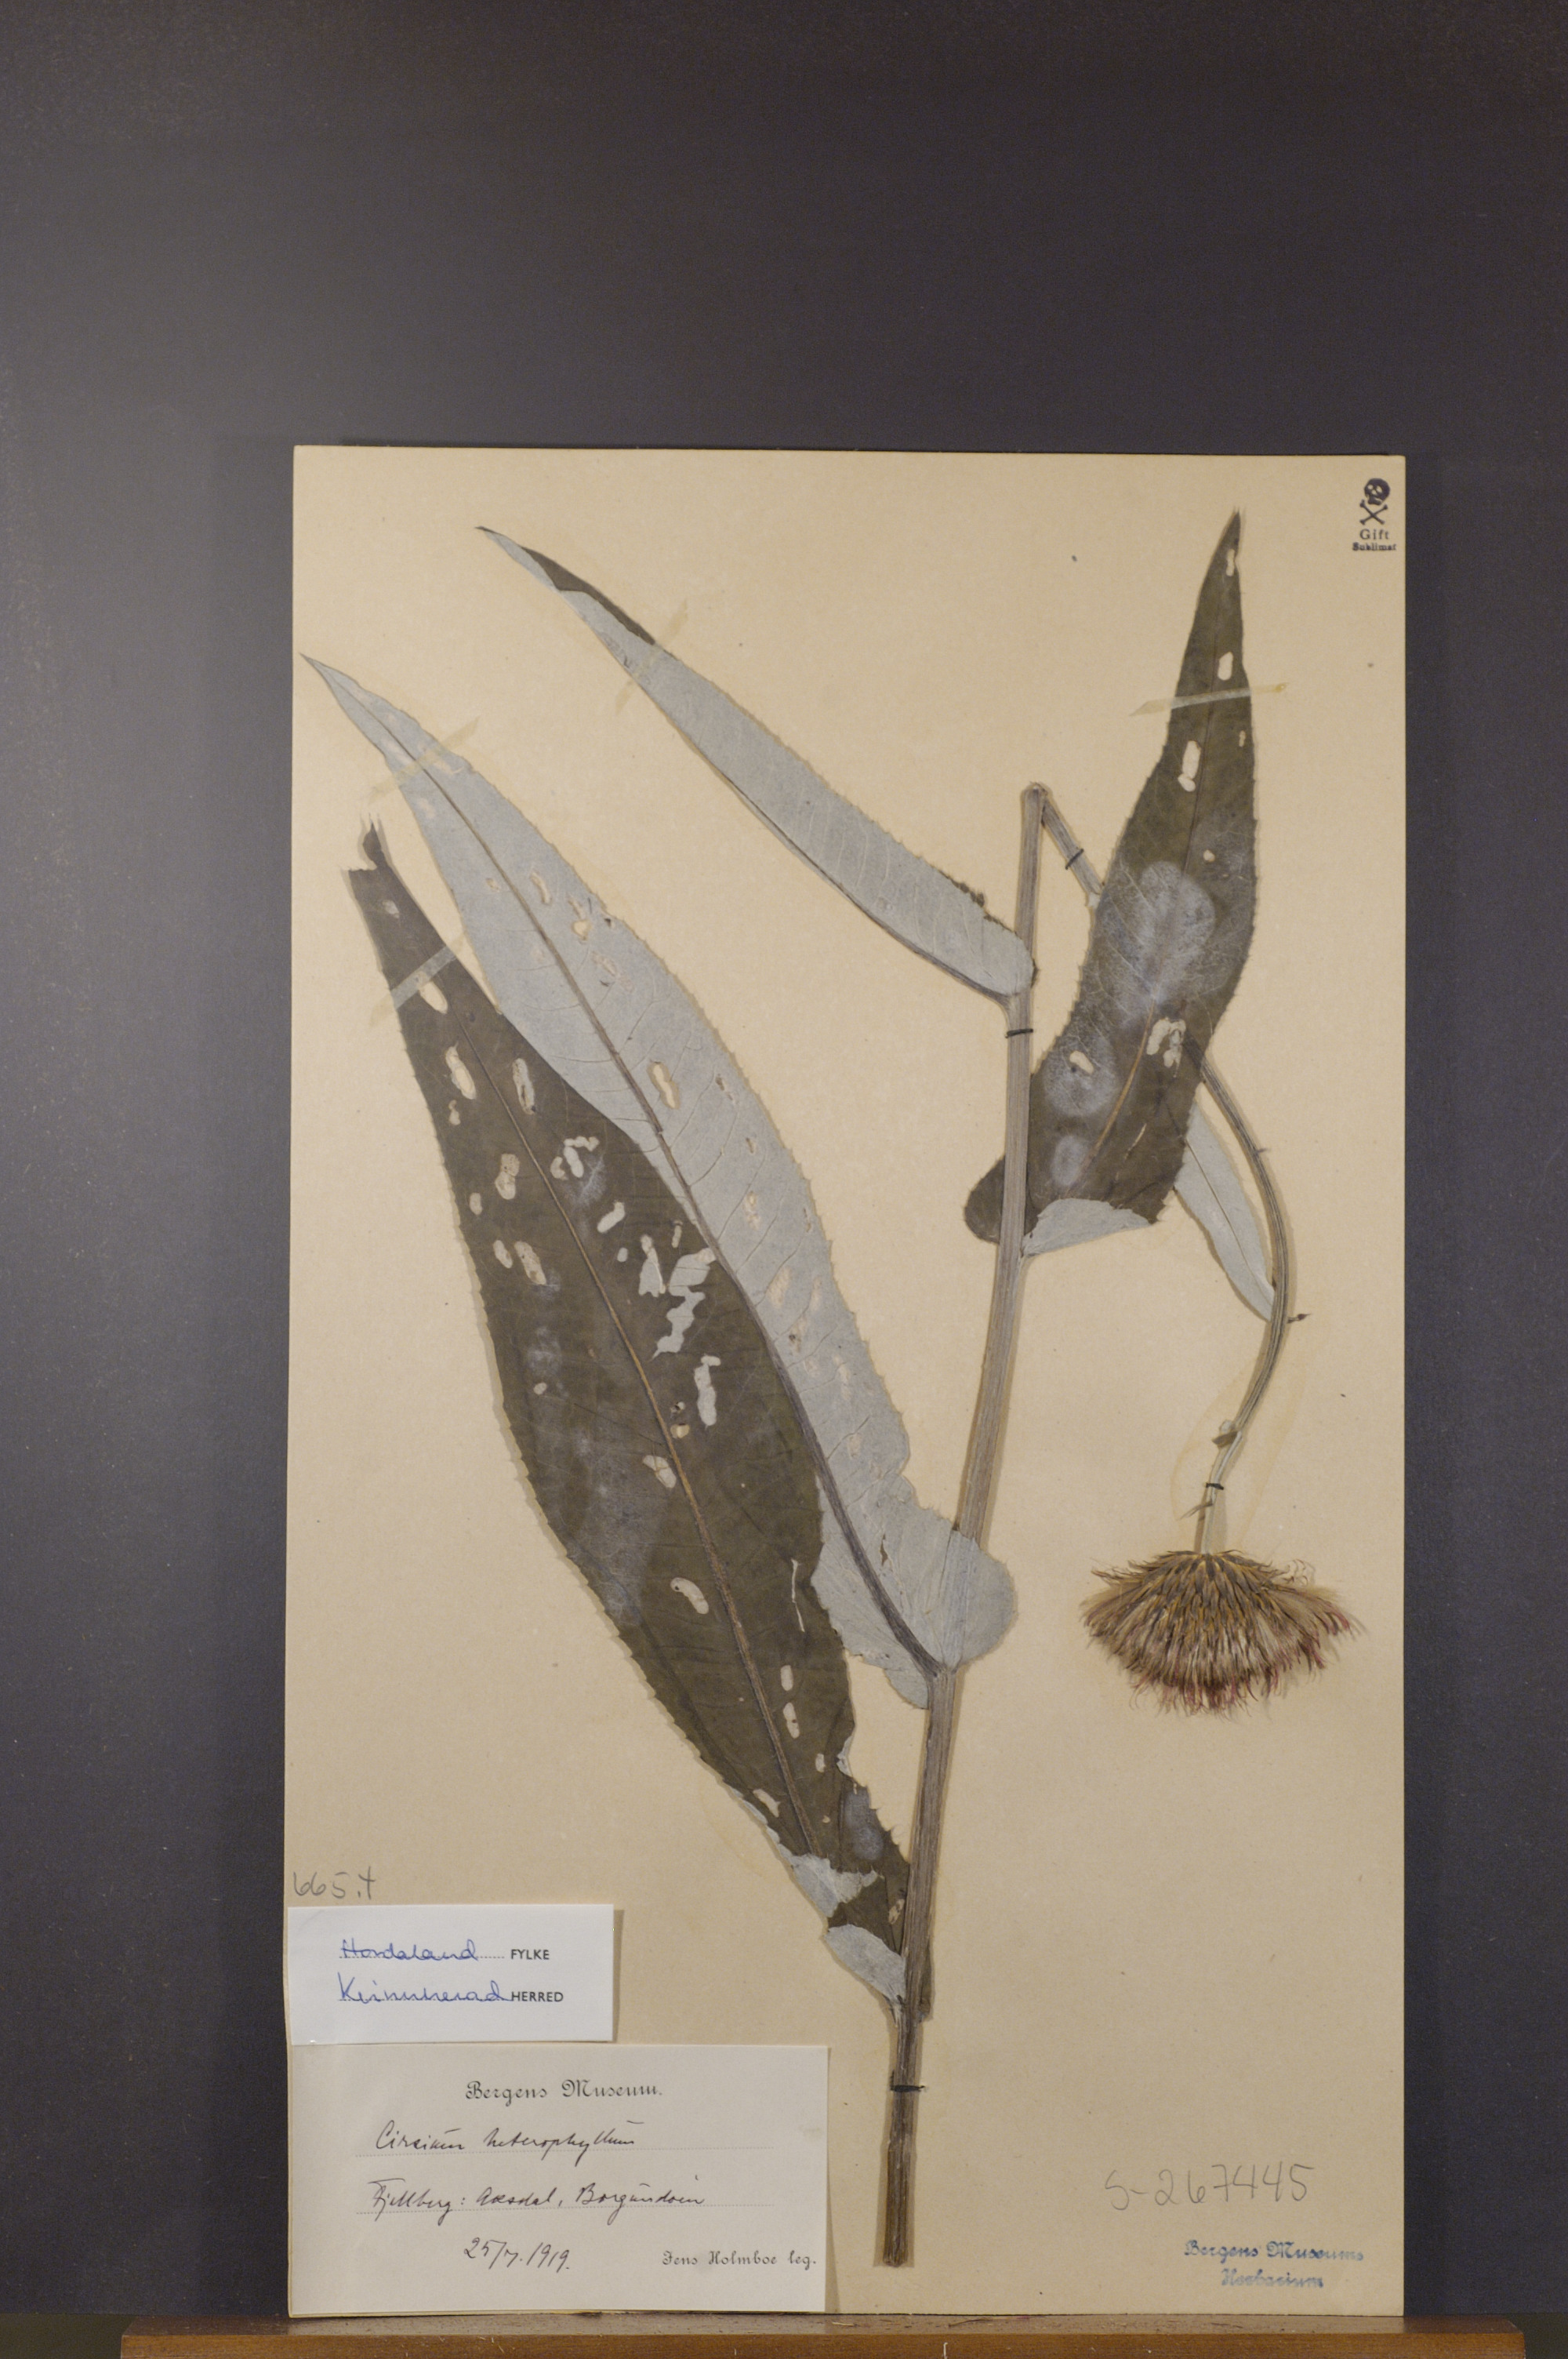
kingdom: Plantae
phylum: Tracheophyta
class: Magnoliopsida
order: Asterales
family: Asteraceae
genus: Cirsium
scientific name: Cirsium heterophyllum
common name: Melancholy thistle
